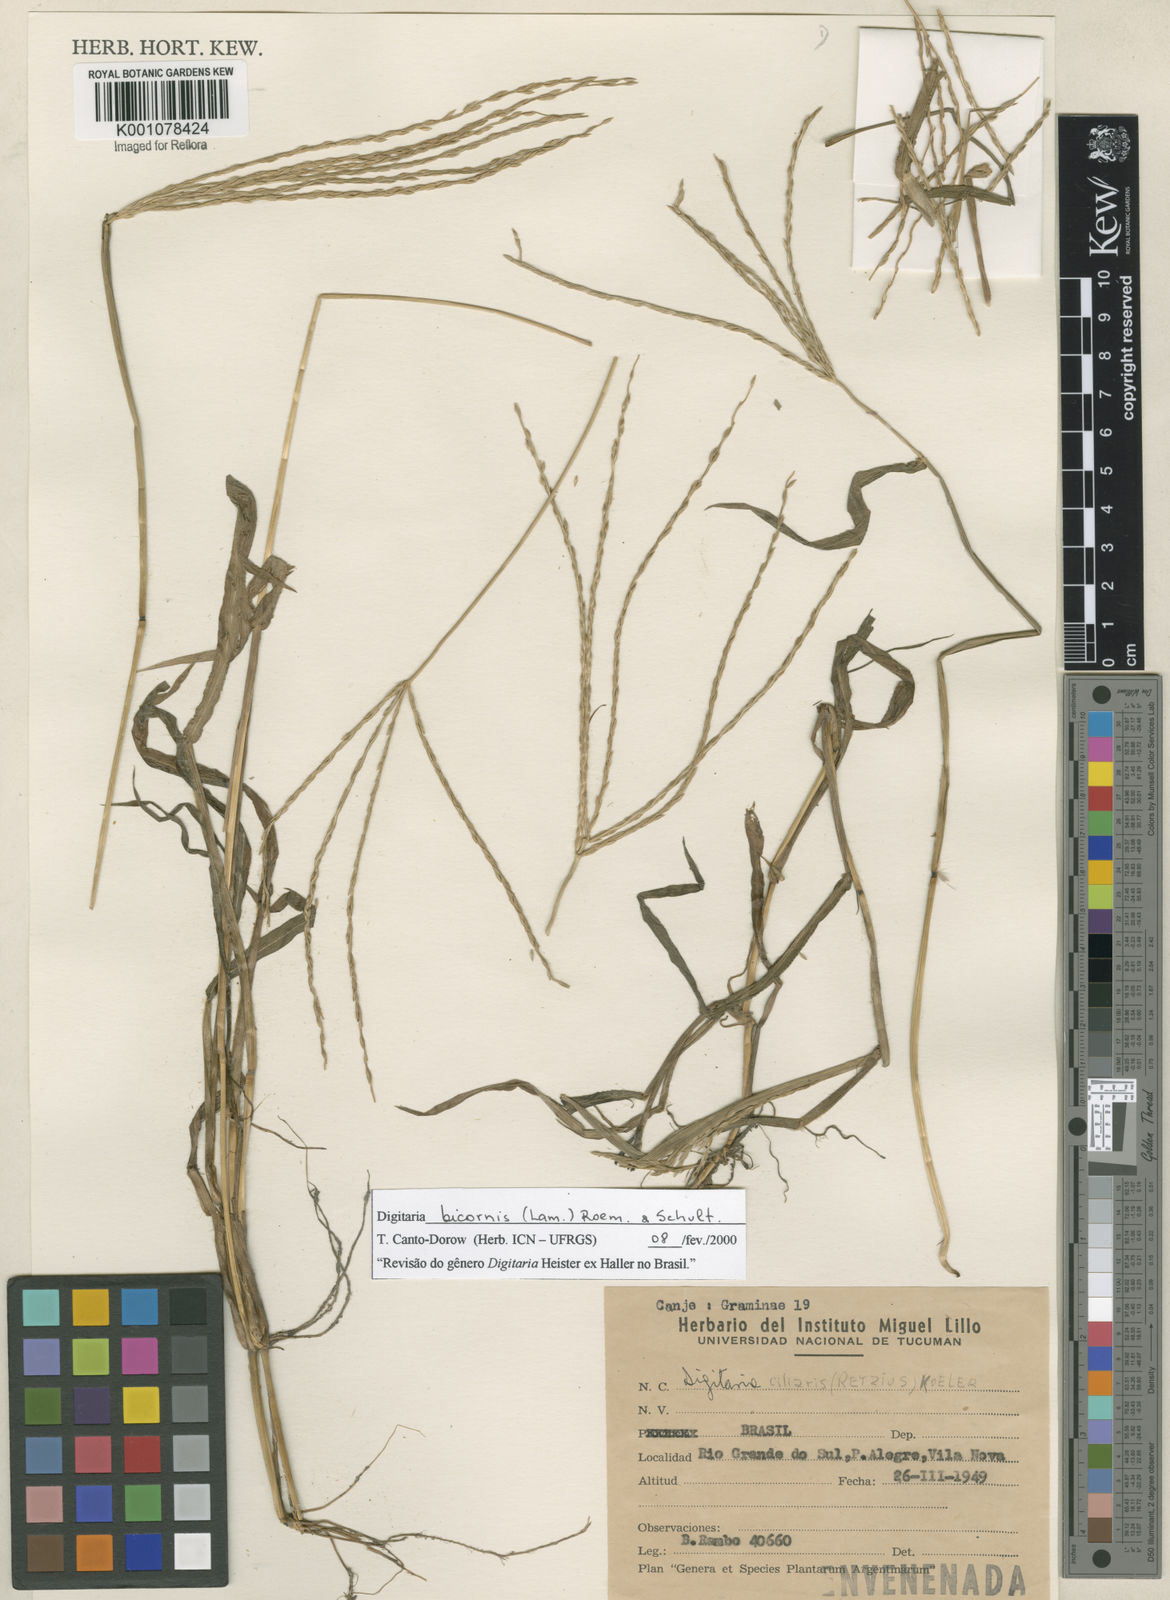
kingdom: Plantae
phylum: Tracheophyta
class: Liliopsida
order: Poales
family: Poaceae
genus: Digitaria
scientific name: Digitaria bicornis
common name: Asian crabgrass
